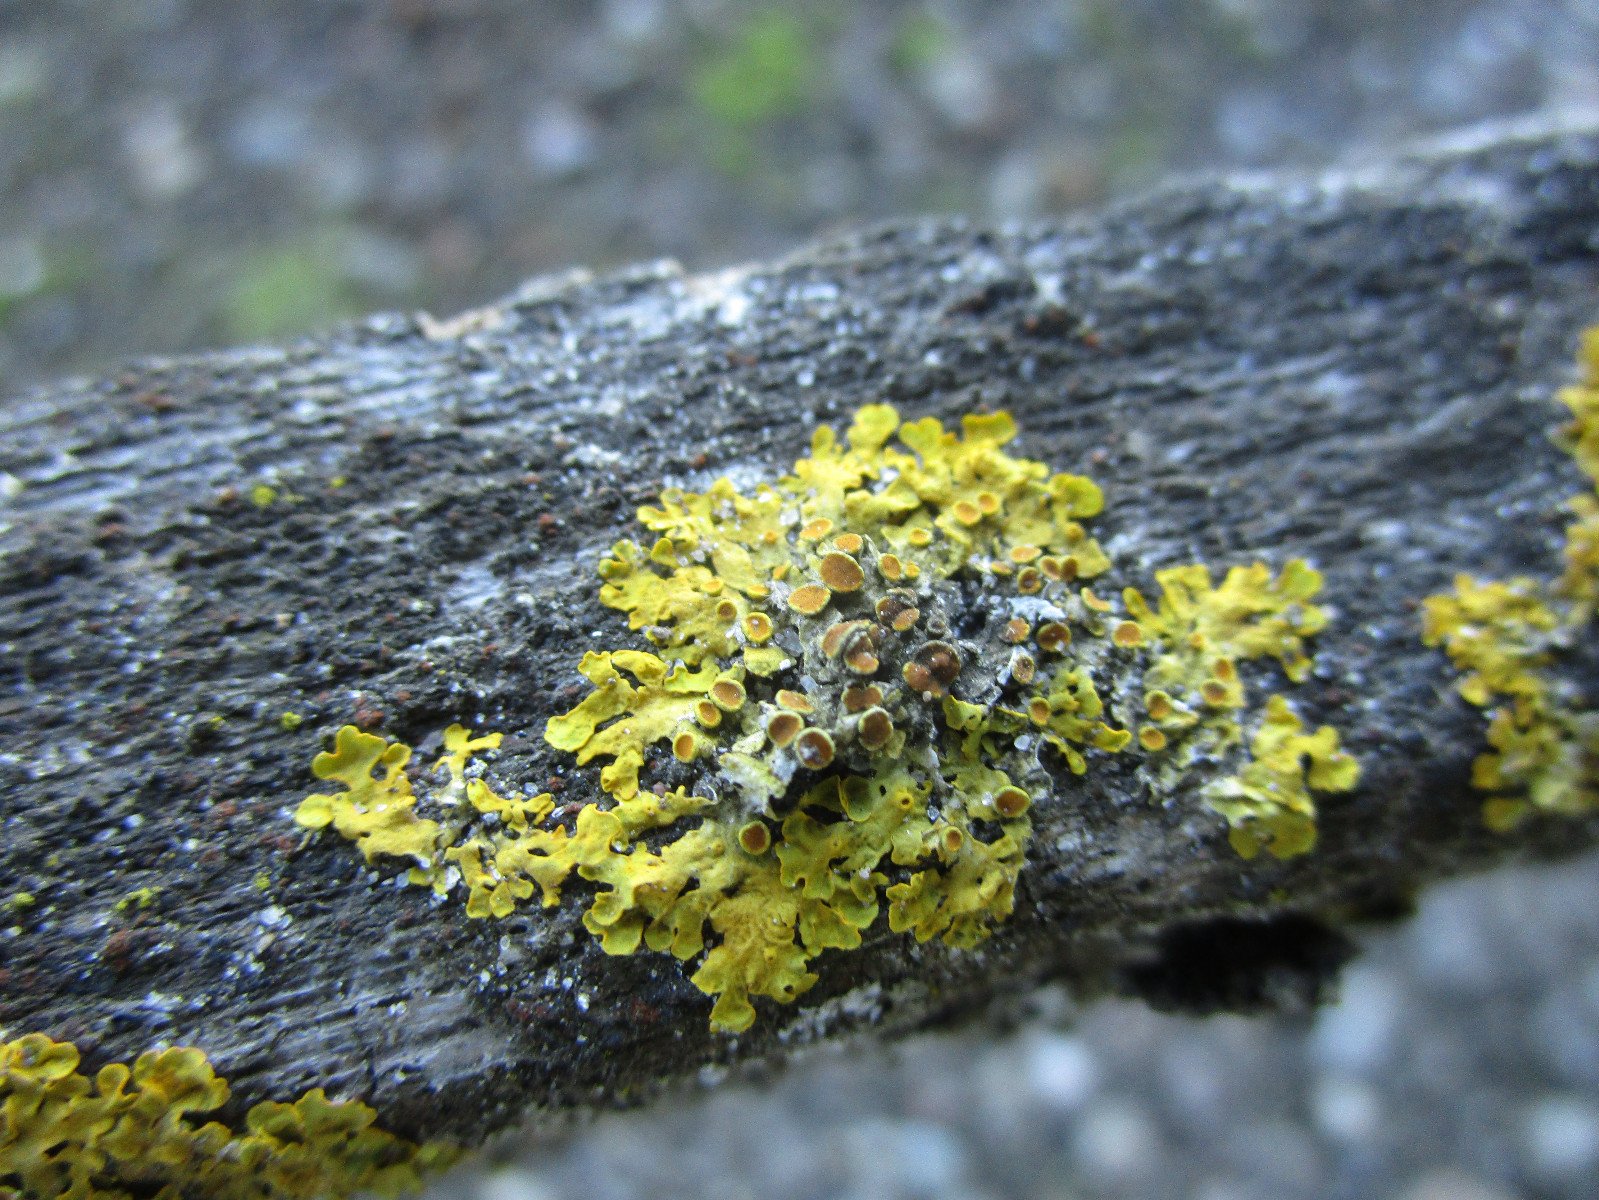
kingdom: Fungi
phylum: Ascomycota
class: Lecanoromycetes
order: Teloschistales
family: Teloschistaceae
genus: Xanthoria
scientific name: Xanthoria parietina
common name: almindelig væggelav
